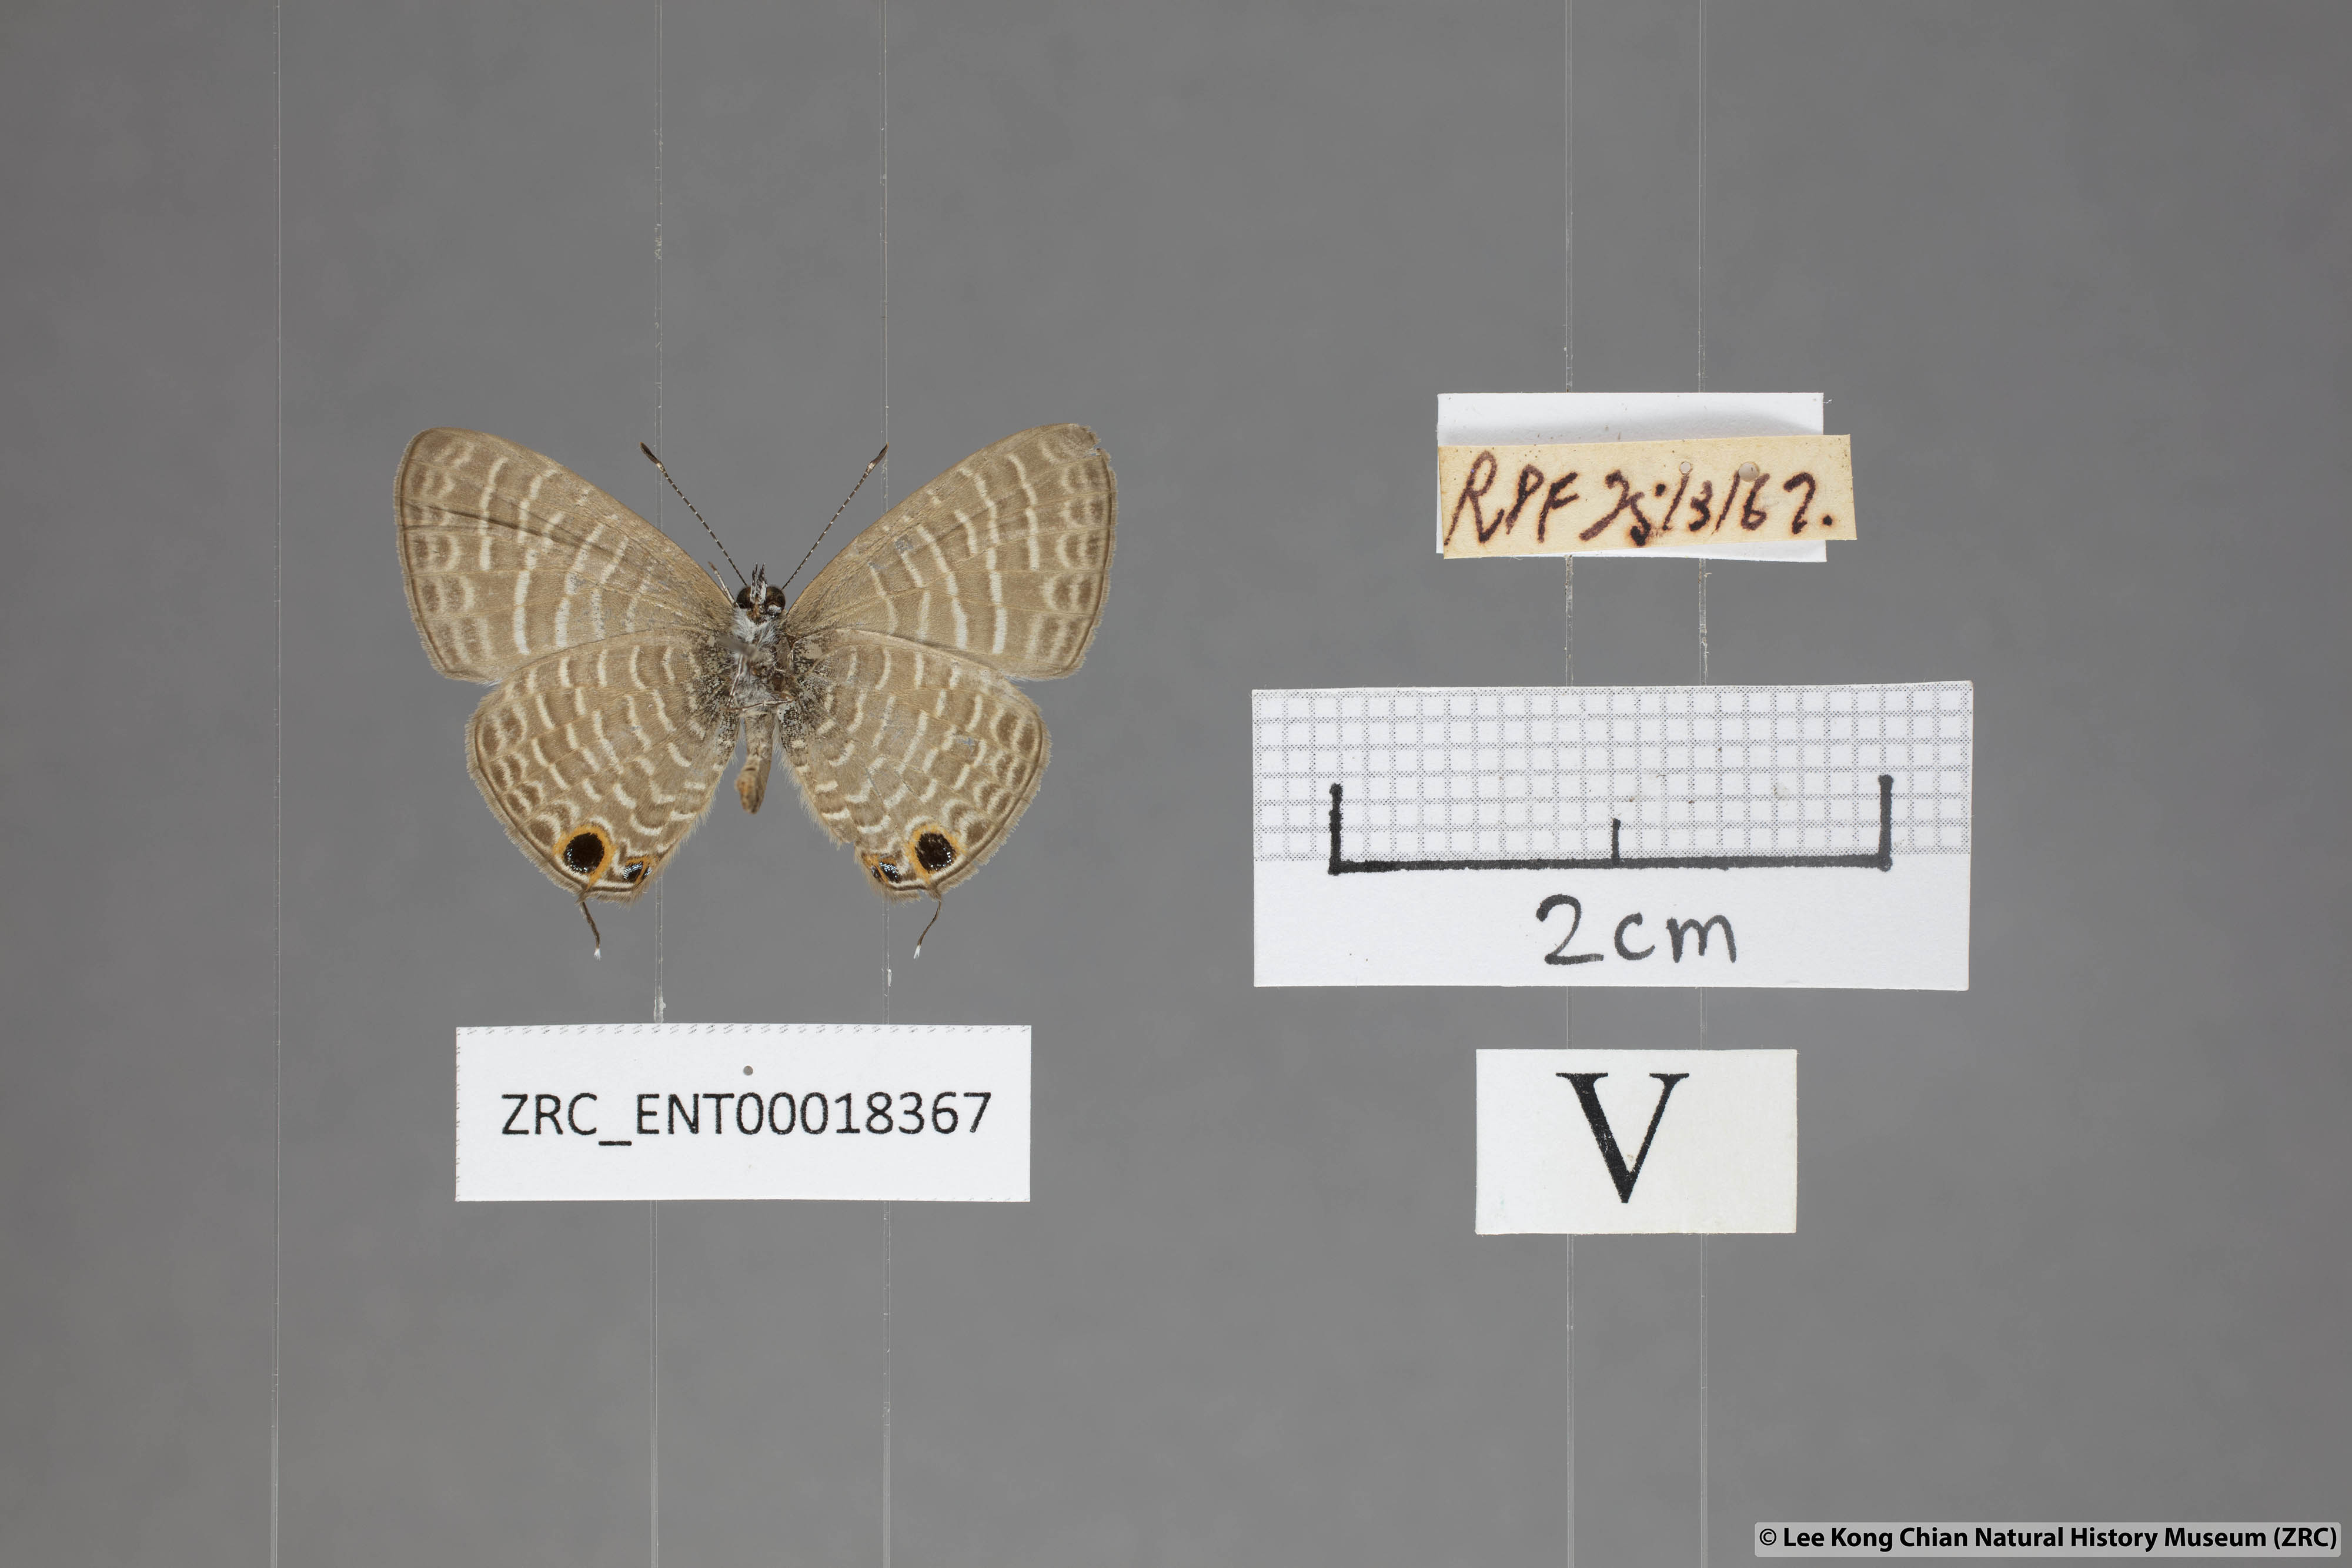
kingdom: Animalia
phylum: Arthropoda
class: Insecta
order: Lepidoptera
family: Lycaenidae
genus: Nacaduba
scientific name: Nacaduba kurava
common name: Transparent 6-line blue
